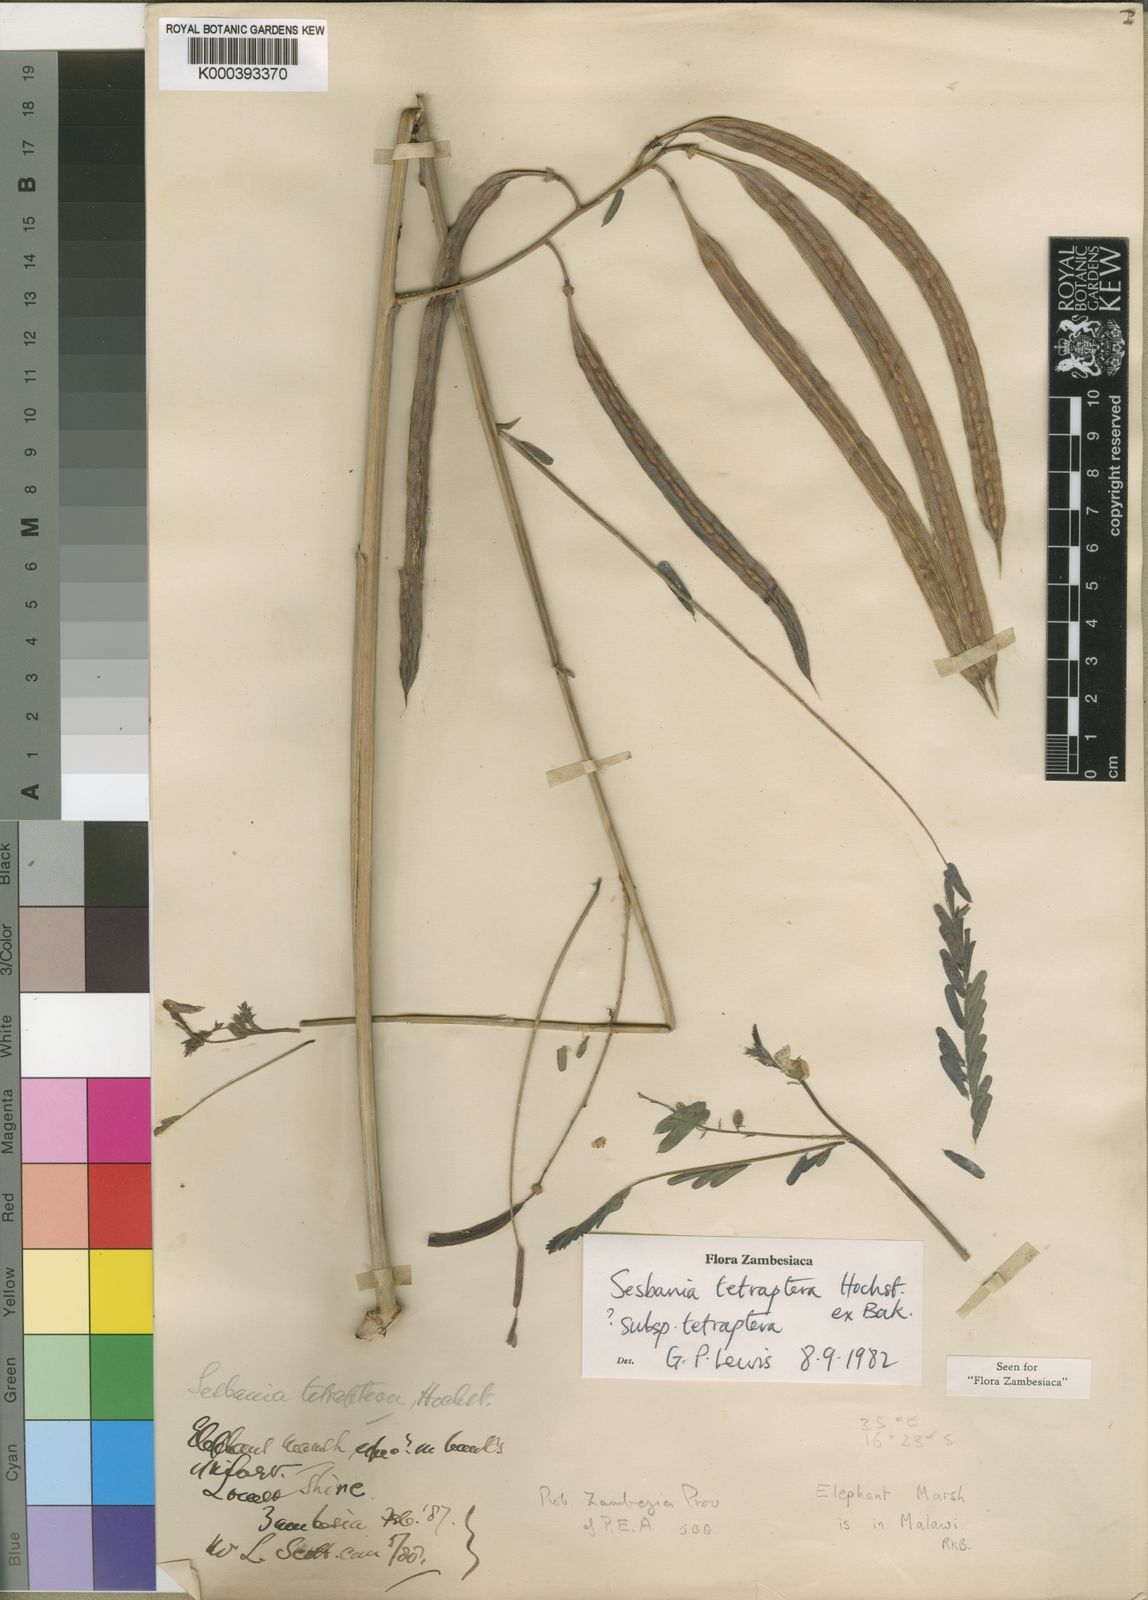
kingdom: Plantae
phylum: Tracheophyta
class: Magnoliopsida
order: Fabales
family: Fabaceae
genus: Sesbania
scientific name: Sesbania tetraptera
